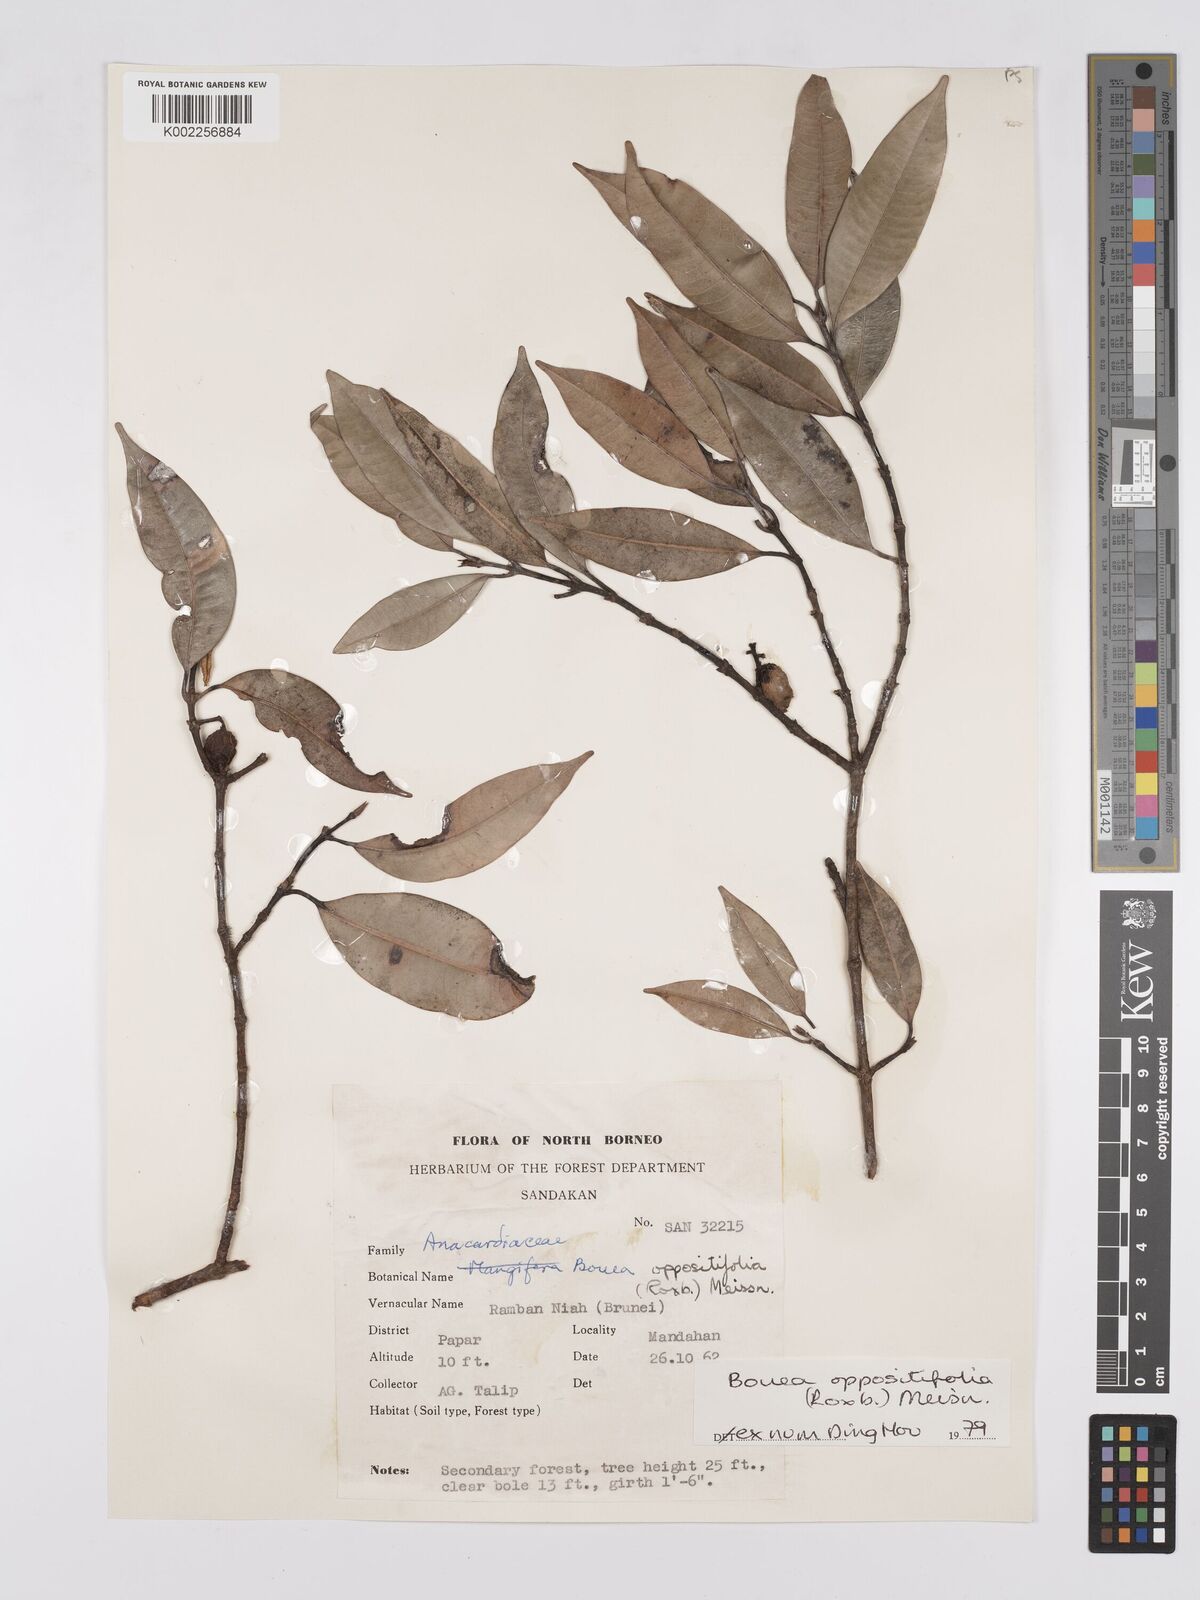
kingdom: Plantae
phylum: Tracheophyta
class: Magnoliopsida
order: Sapindales
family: Anacardiaceae
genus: Bouea
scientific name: Bouea oppositifolia
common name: Narrow-leaved kundang
